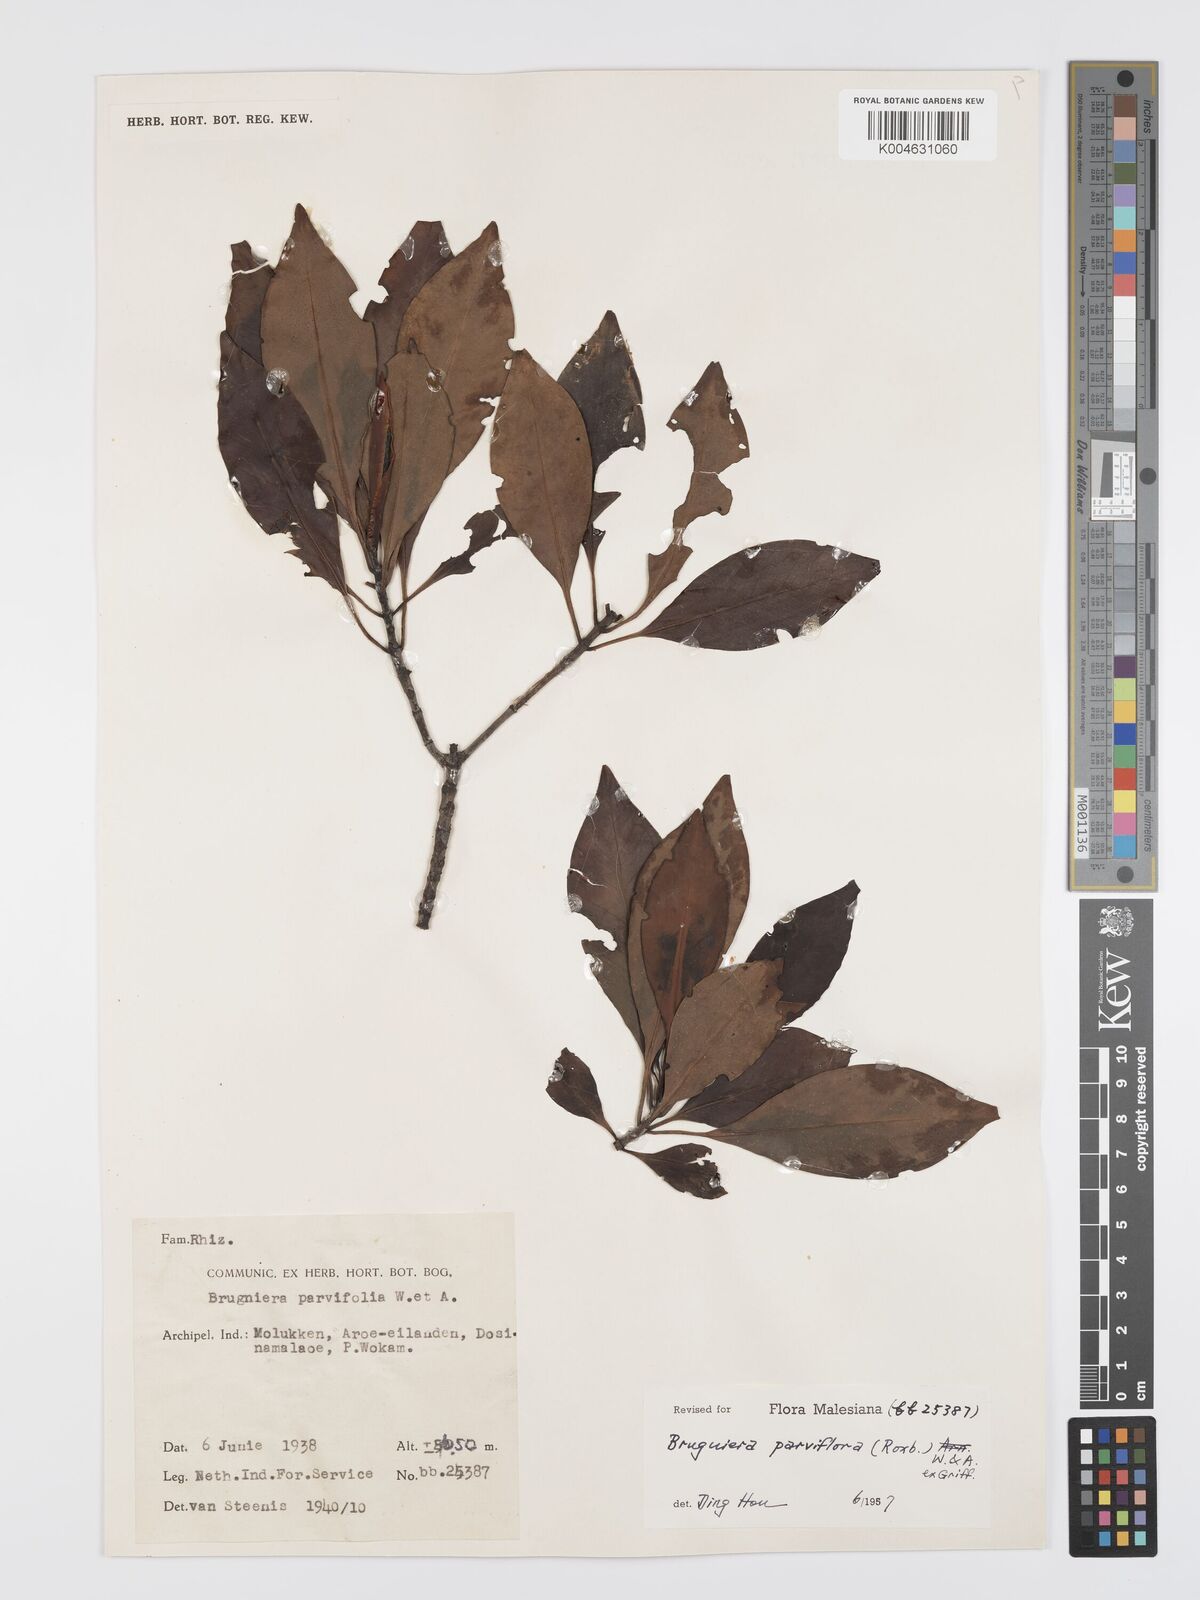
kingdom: Plantae
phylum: Tracheophyta
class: Magnoliopsida
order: Malpighiales
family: Rhizophoraceae
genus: Bruguiera
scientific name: Bruguiera parviflora
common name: Smallflower bruguiera
